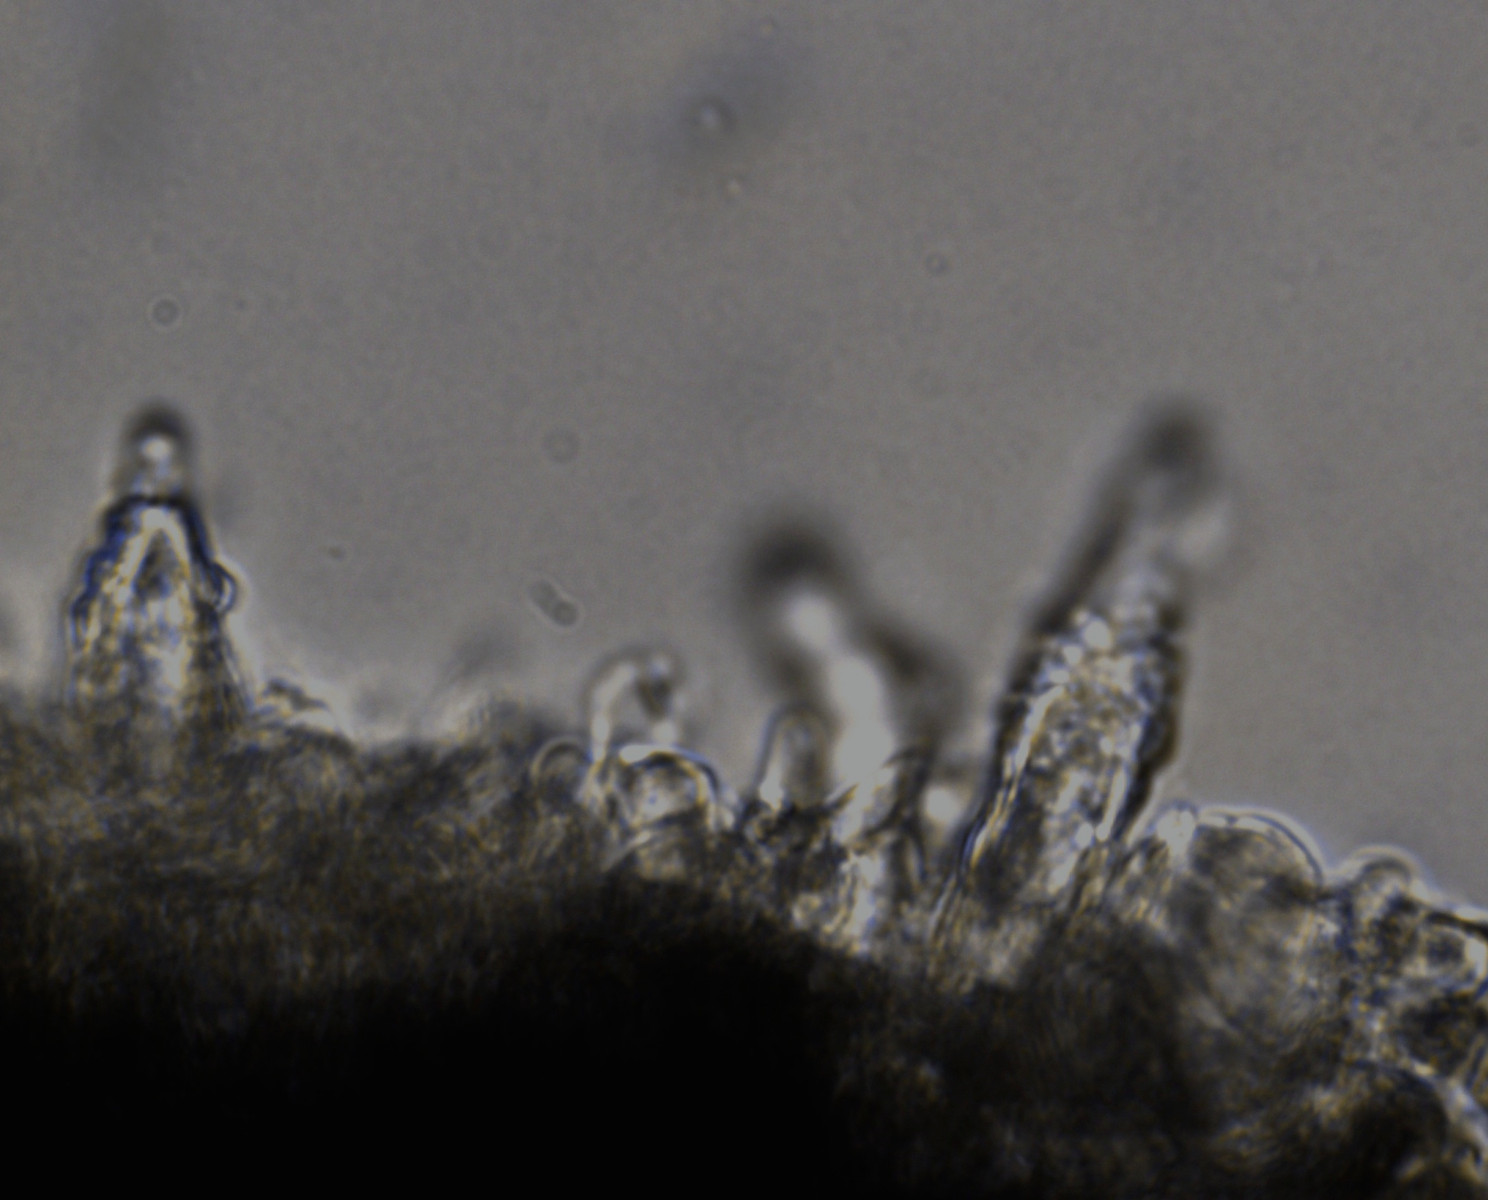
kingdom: Fungi
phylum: Basidiomycota
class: Agaricomycetes
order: Russulales
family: Peniophoraceae
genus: Peniophora
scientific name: Peniophora rufomarginata
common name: linde-voksskind
